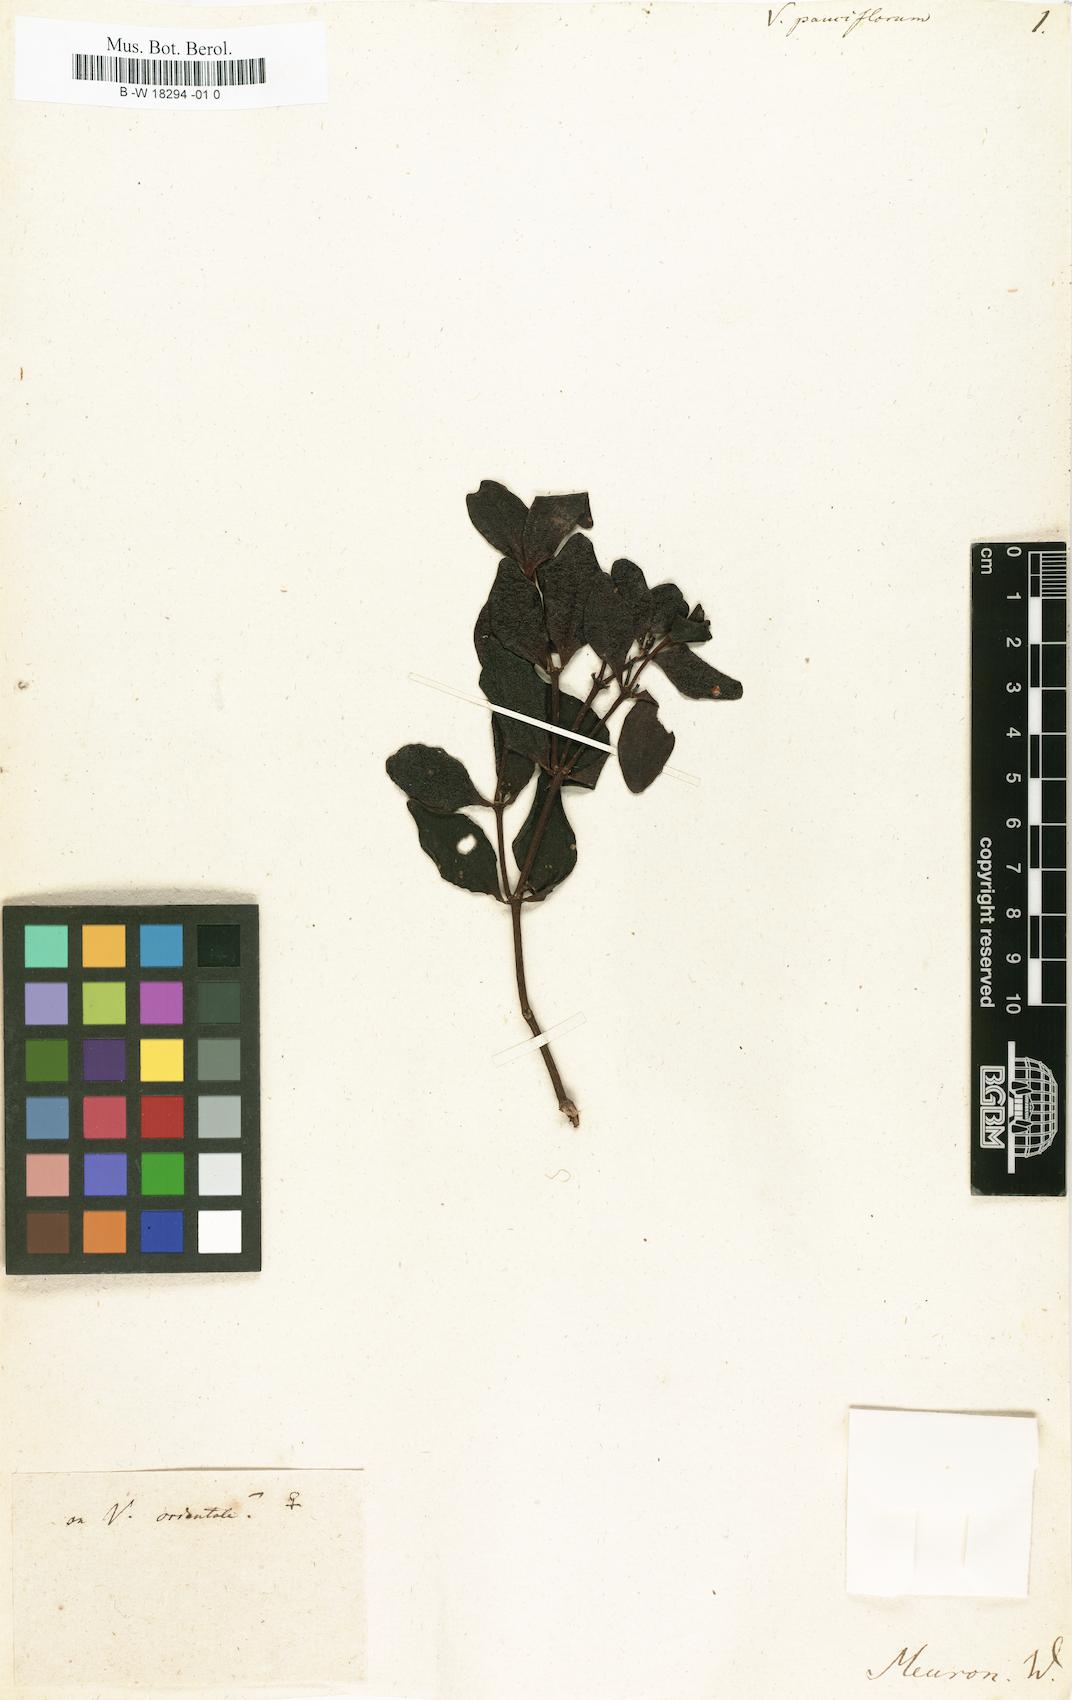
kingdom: Plantae
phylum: Tracheophyta
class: Magnoliopsida
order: Santalales
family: Viscaceae
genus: Viscum
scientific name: Viscum pauciflorum
